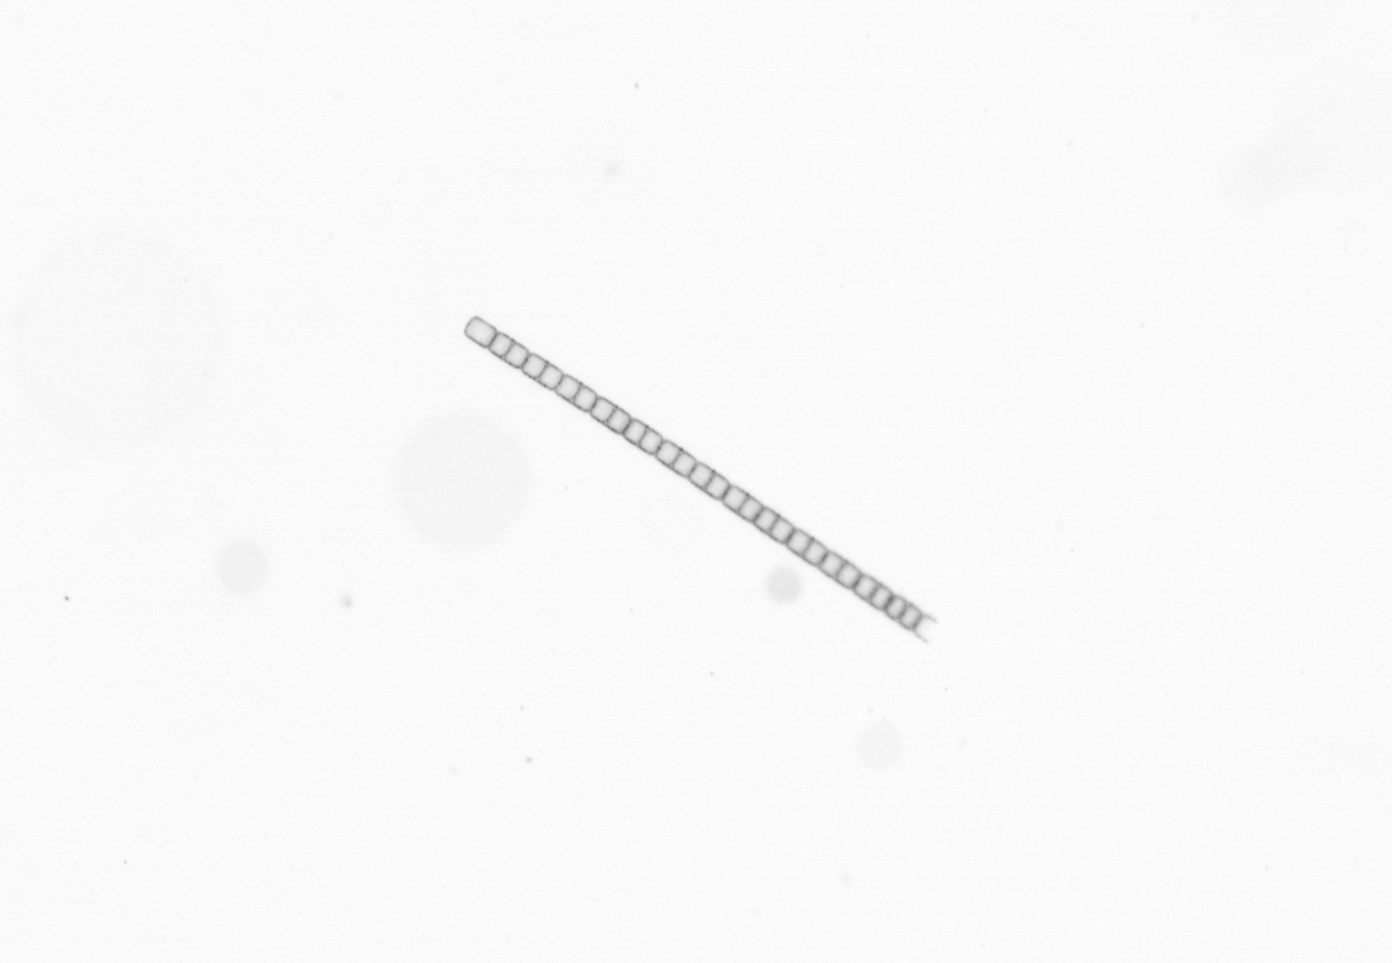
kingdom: Chromista
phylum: Ochrophyta
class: Bacillariophyceae
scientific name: Bacillariophyceae
